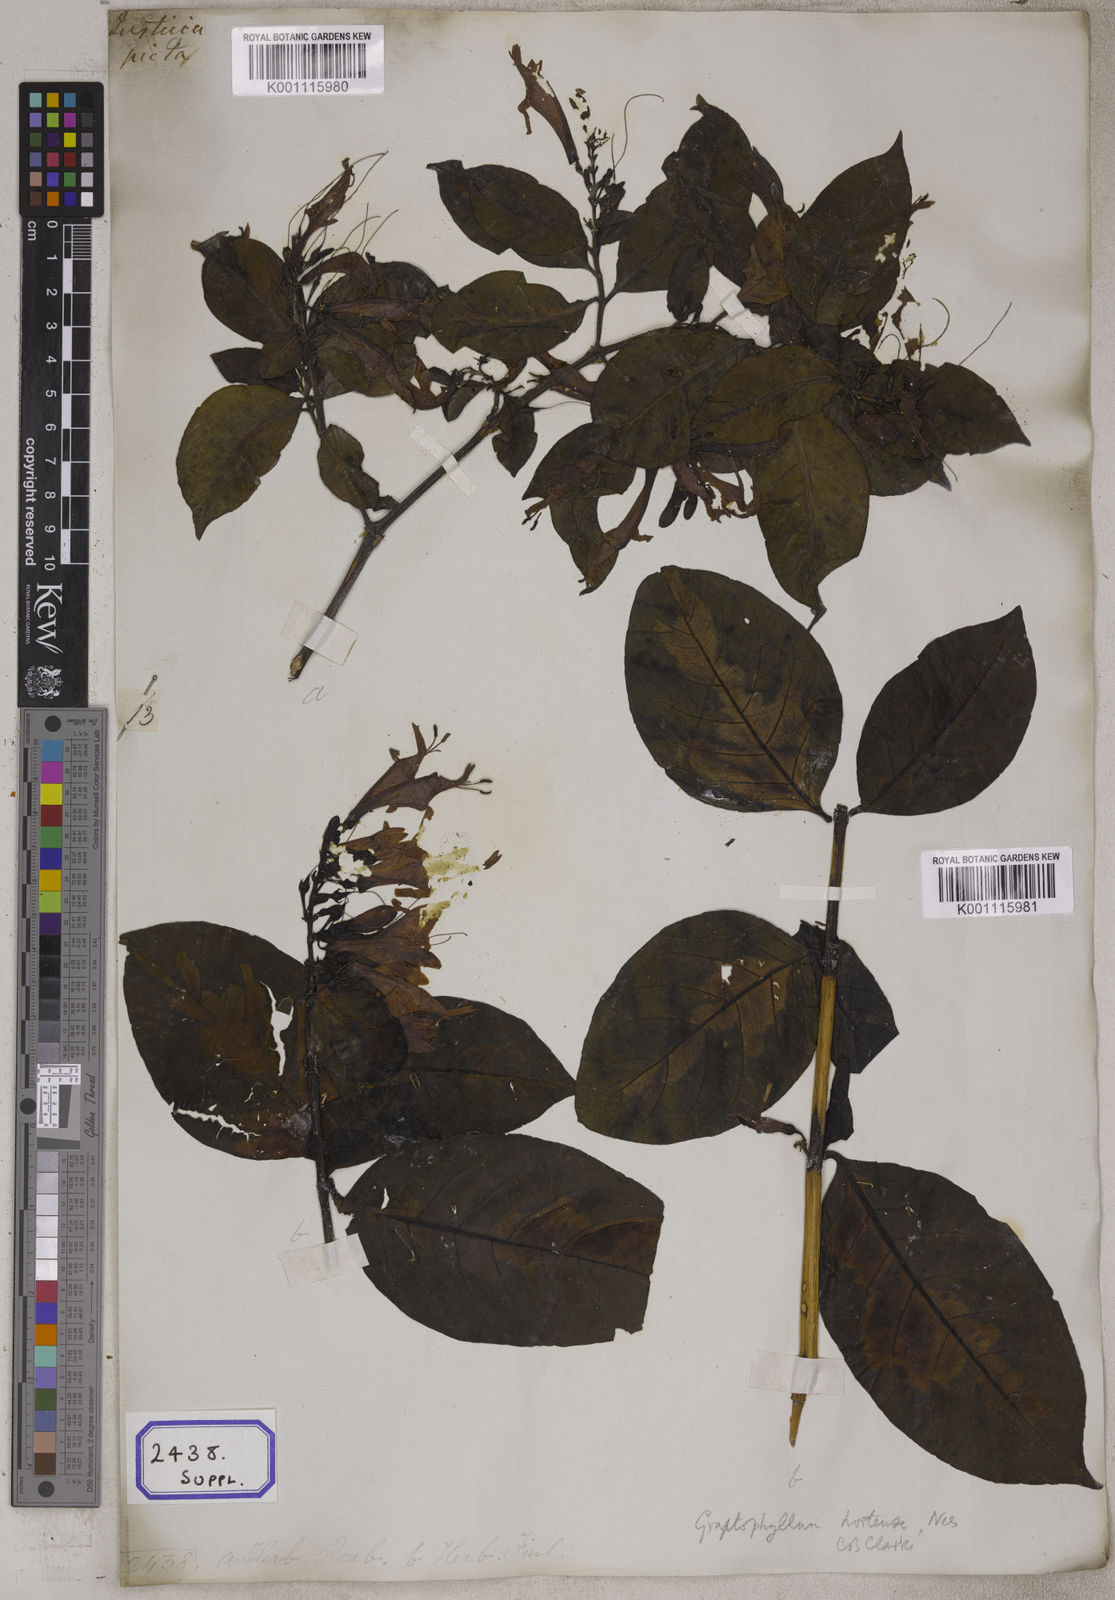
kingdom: Plantae
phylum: Tracheophyta
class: Magnoliopsida
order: Lamiales
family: Acanthaceae
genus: Graptophyllum
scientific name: Graptophyllum pictum
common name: Caricature-plant
